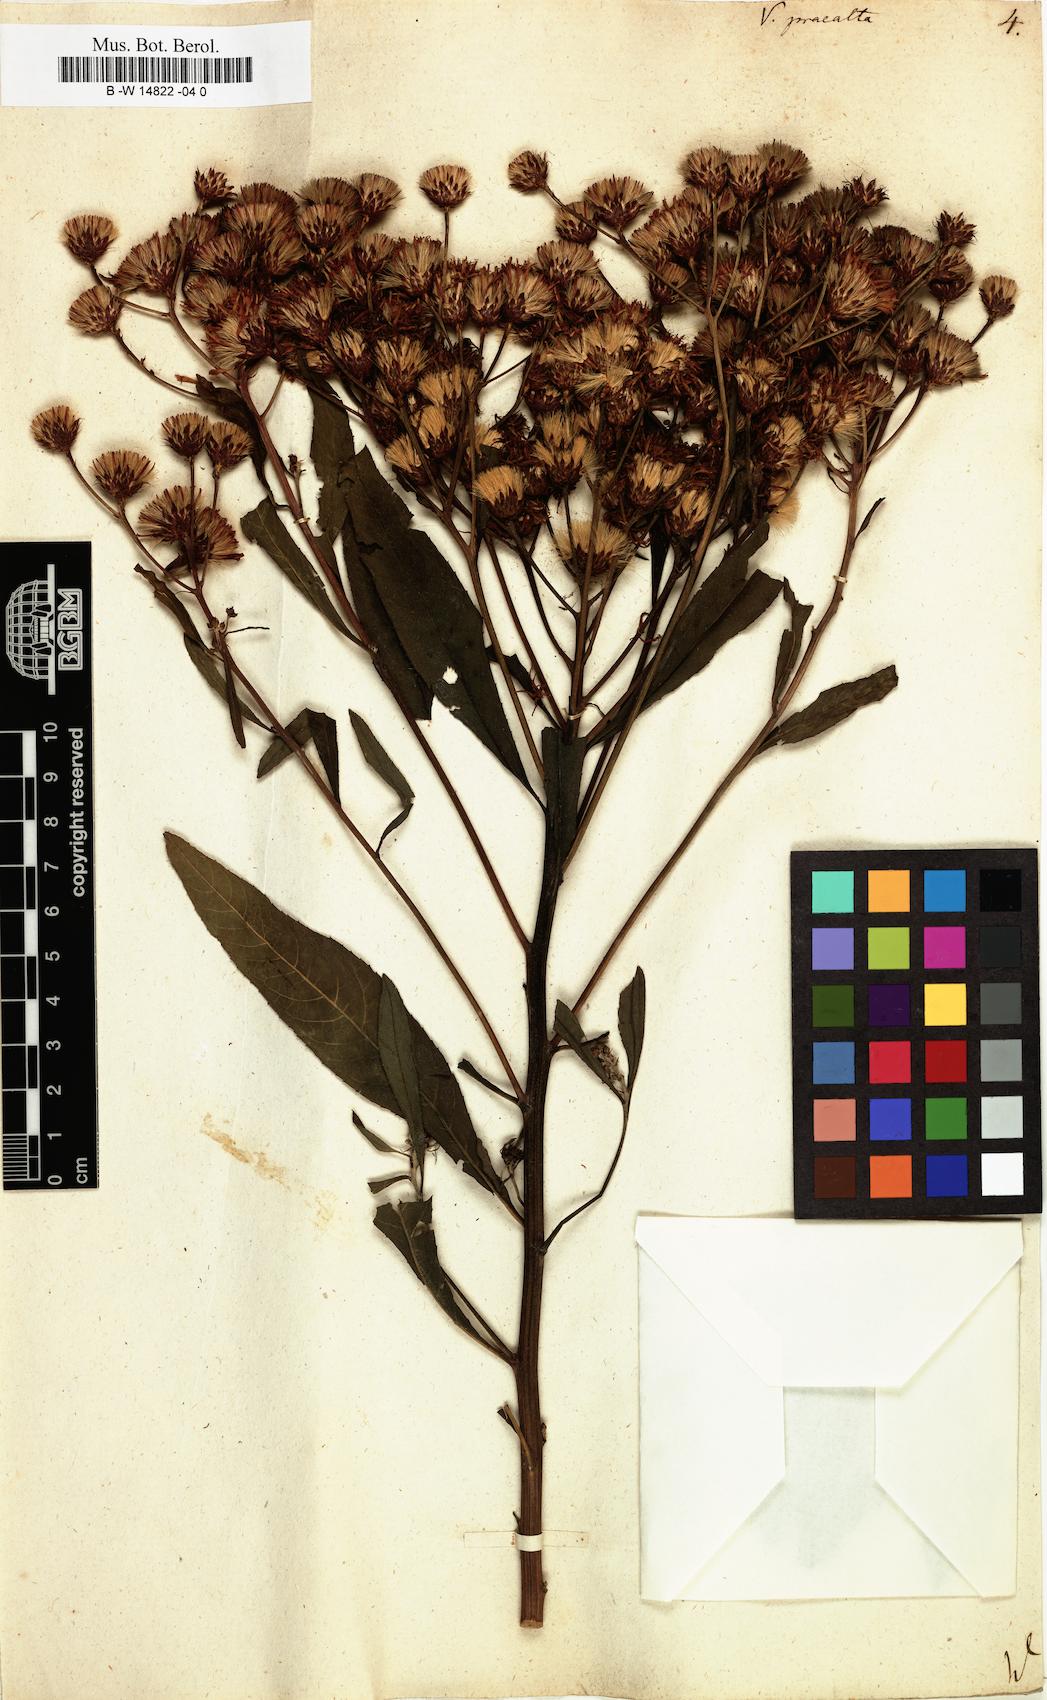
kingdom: Plantae
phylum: Tracheophyta
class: Magnoliopsida
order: Asterales
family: Asteraceae
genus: Vernonia
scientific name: Vernonia praealta
